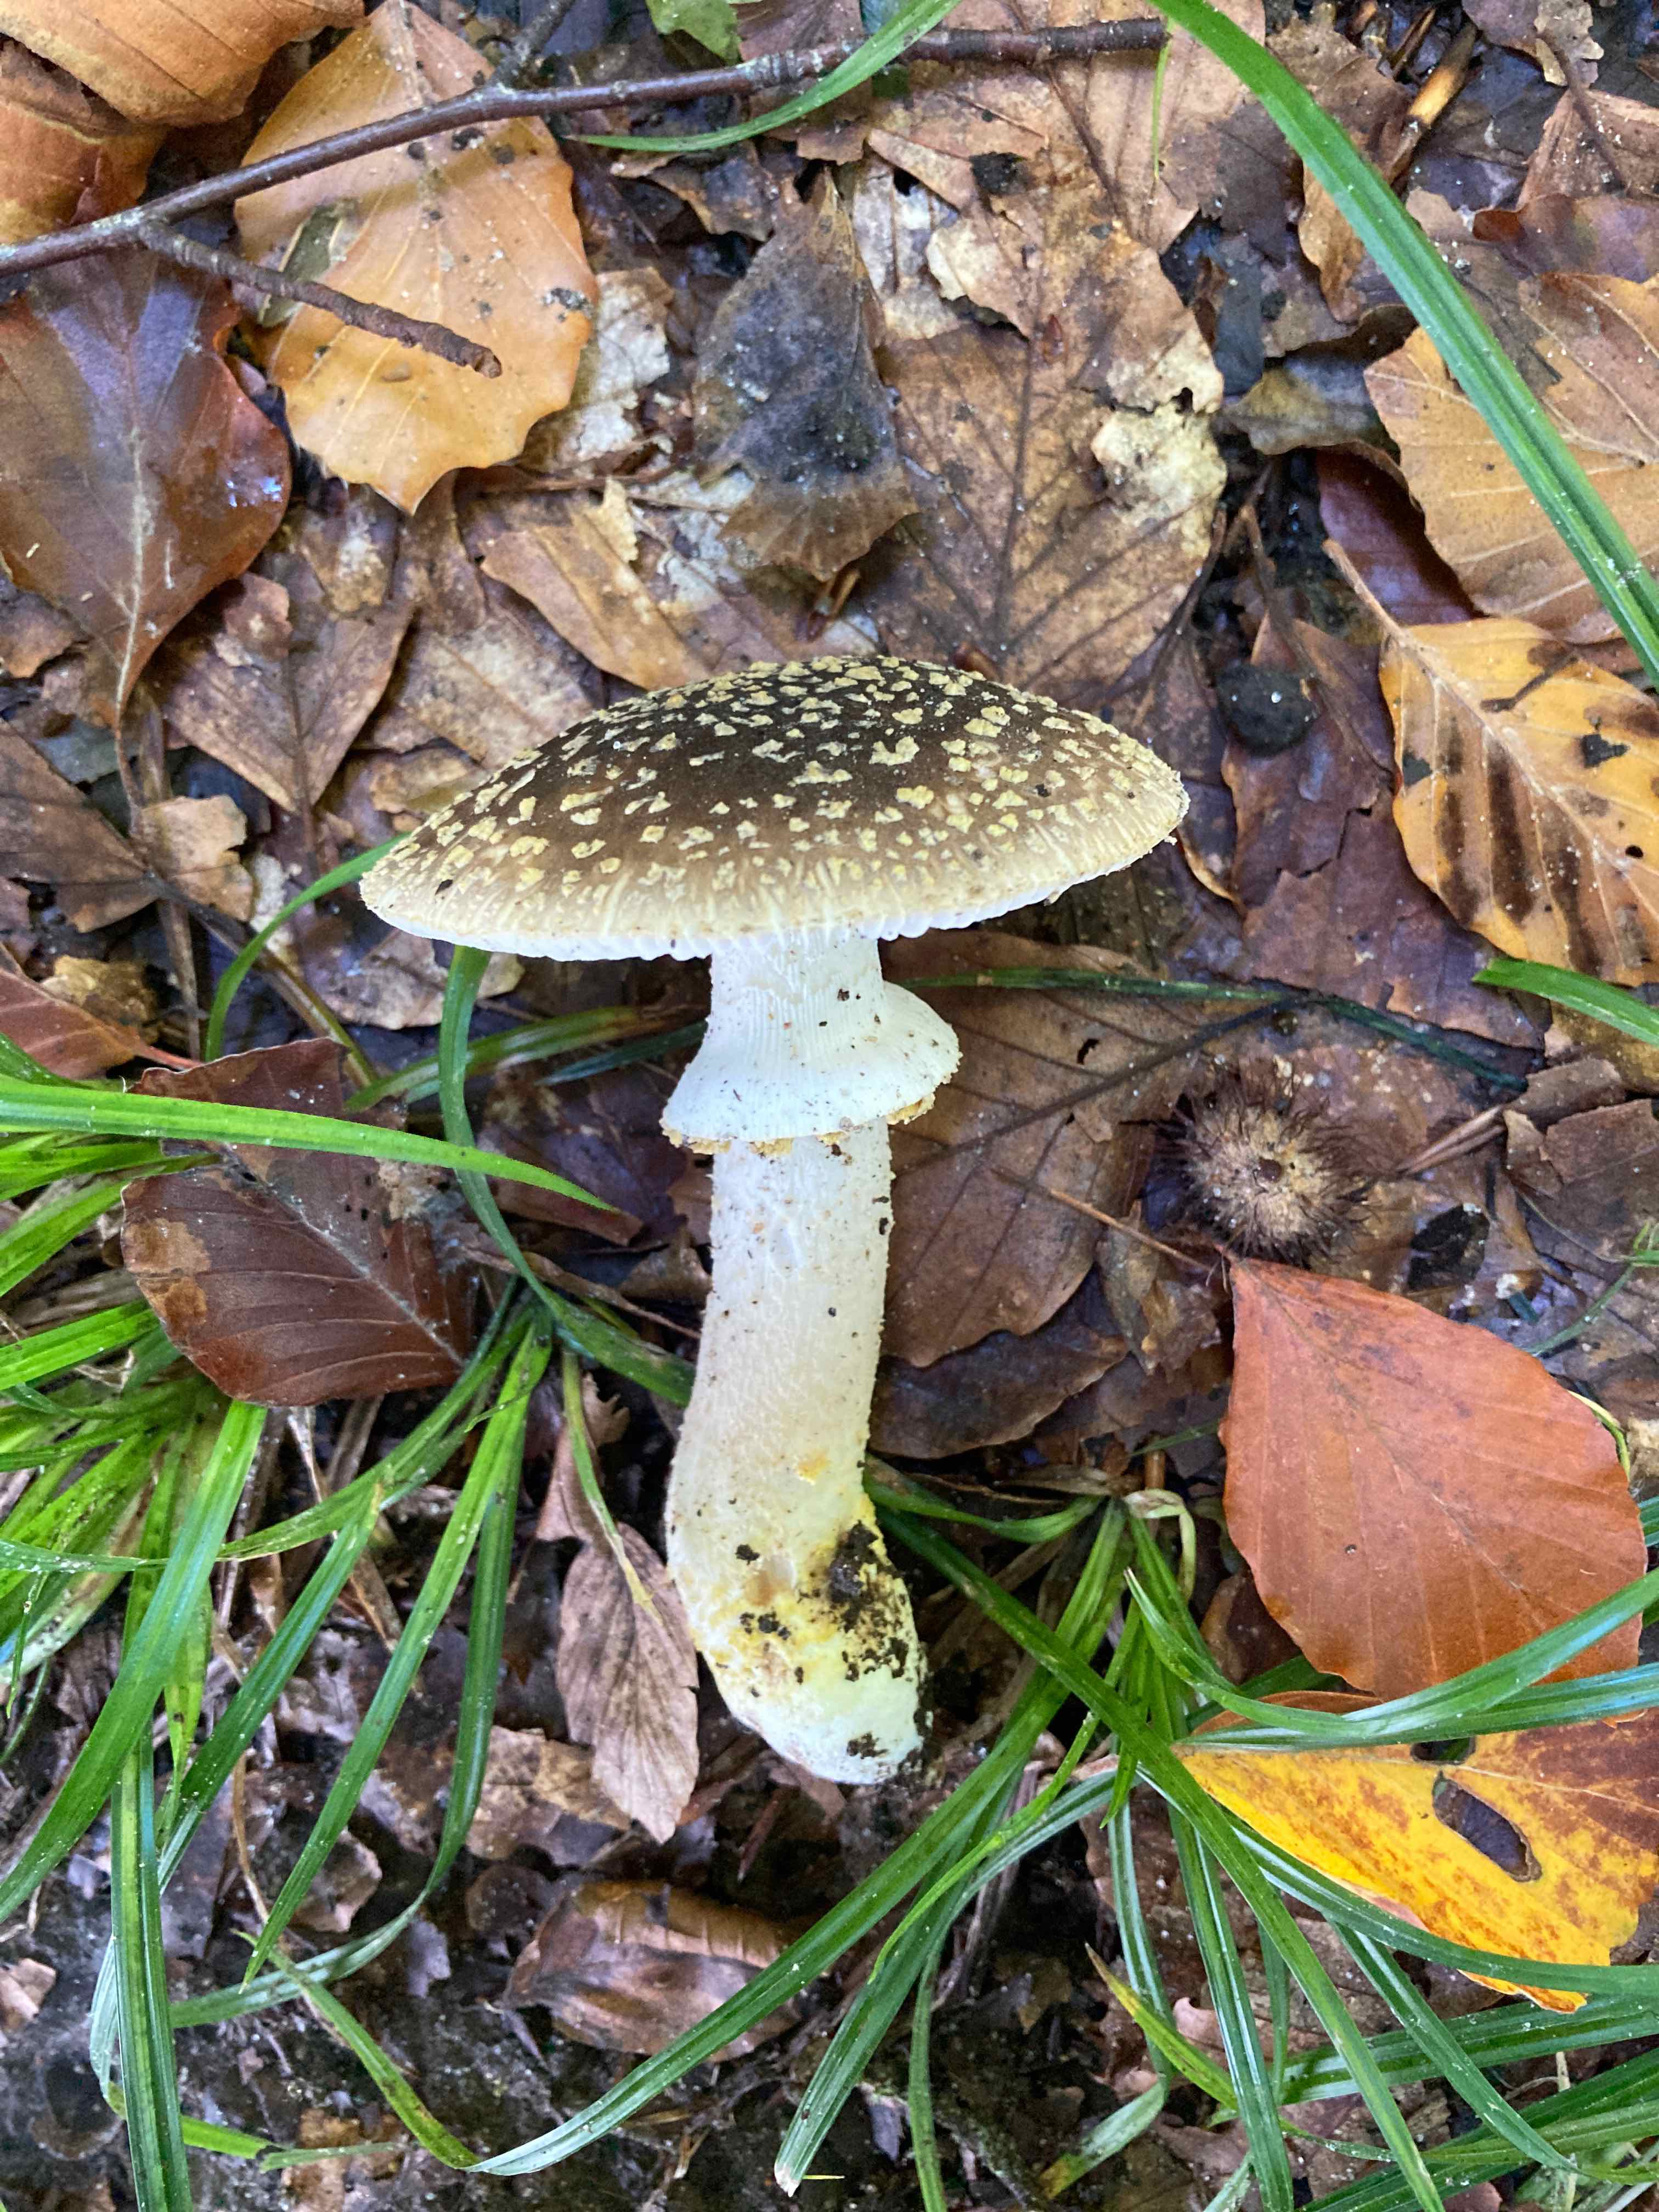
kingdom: Fungi
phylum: Basidiomycota
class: Agaricomycetes
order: Agaricales
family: Amanitaceae
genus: Amanita
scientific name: Amanita franchetii
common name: gulrandet fluesvamp
